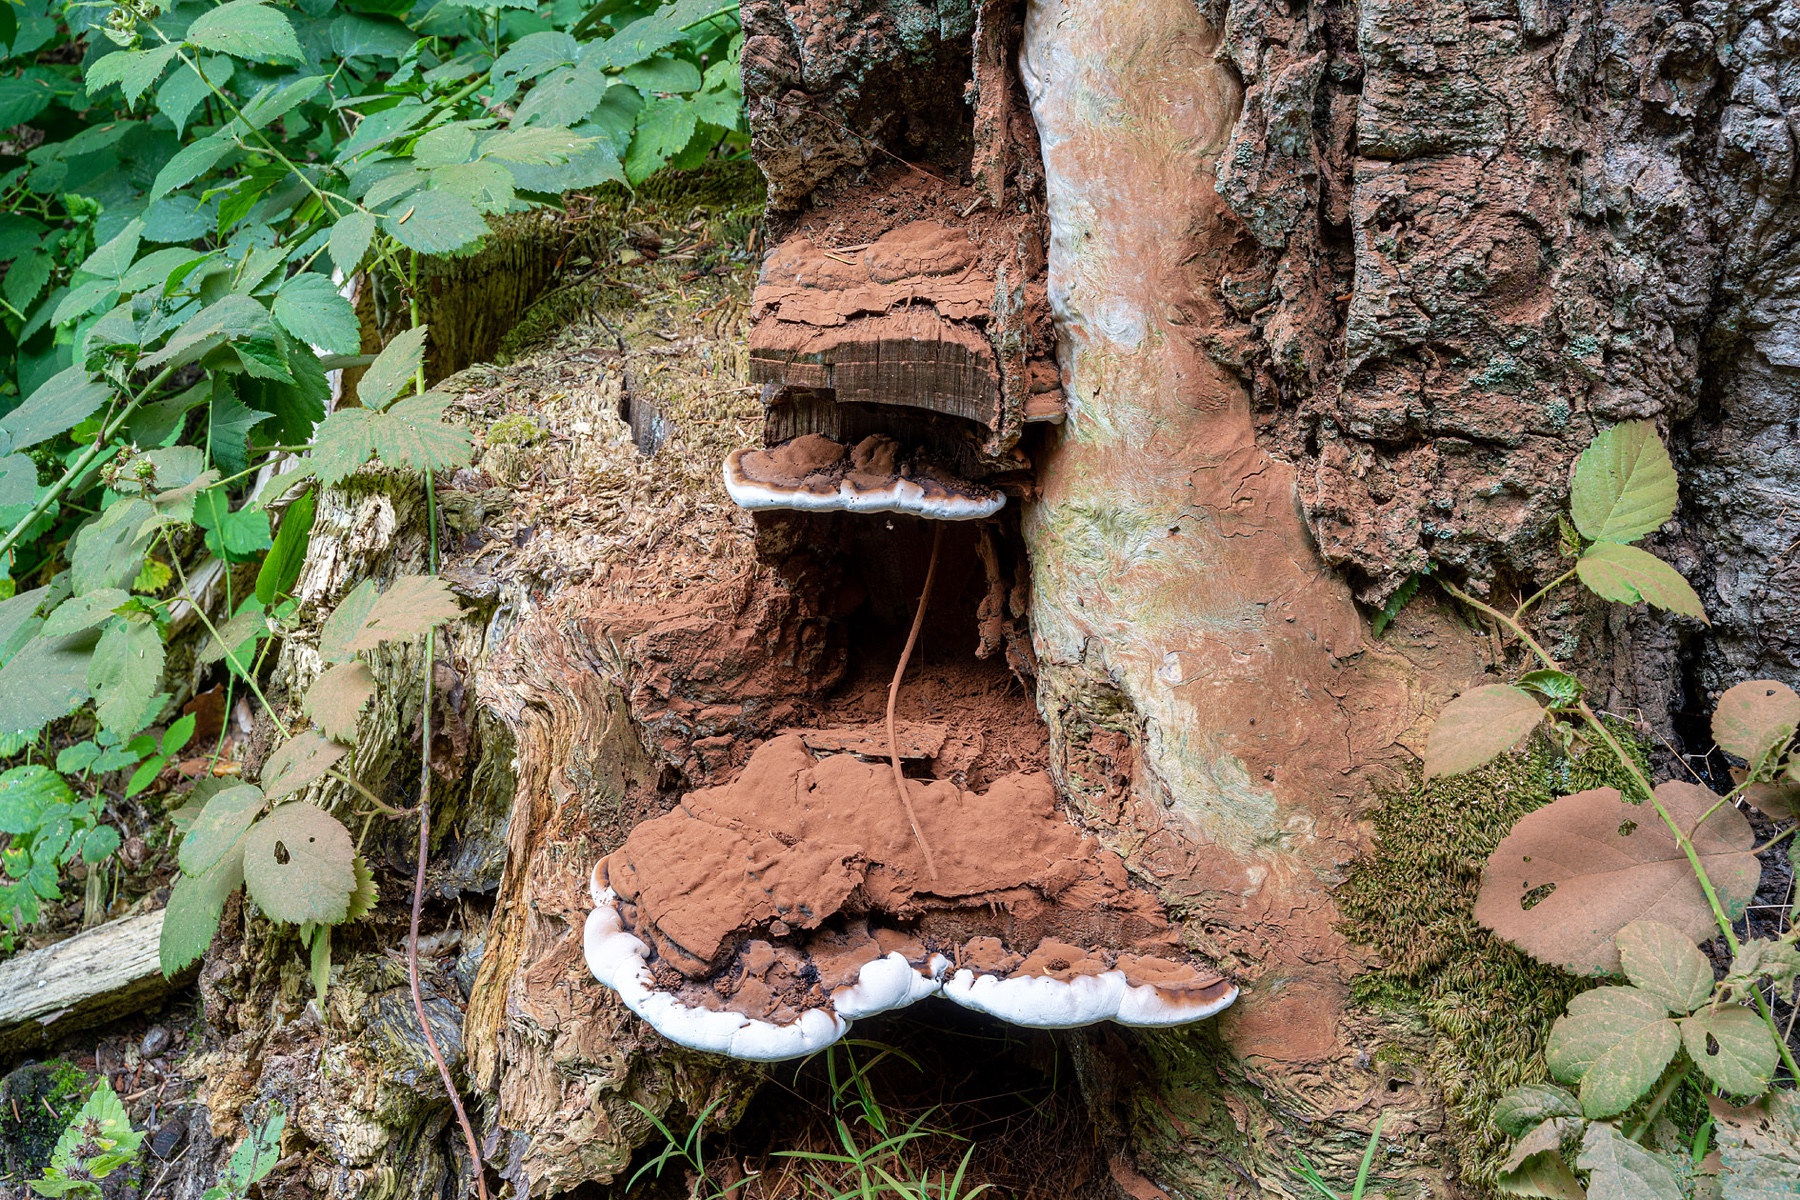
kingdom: Fungi
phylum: Basidiomycota
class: Agaricomycetes
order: Polyporales
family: Polyporaceae
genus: Ganoderma
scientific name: Ganoderma applanatum
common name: flad lakporesvamp
